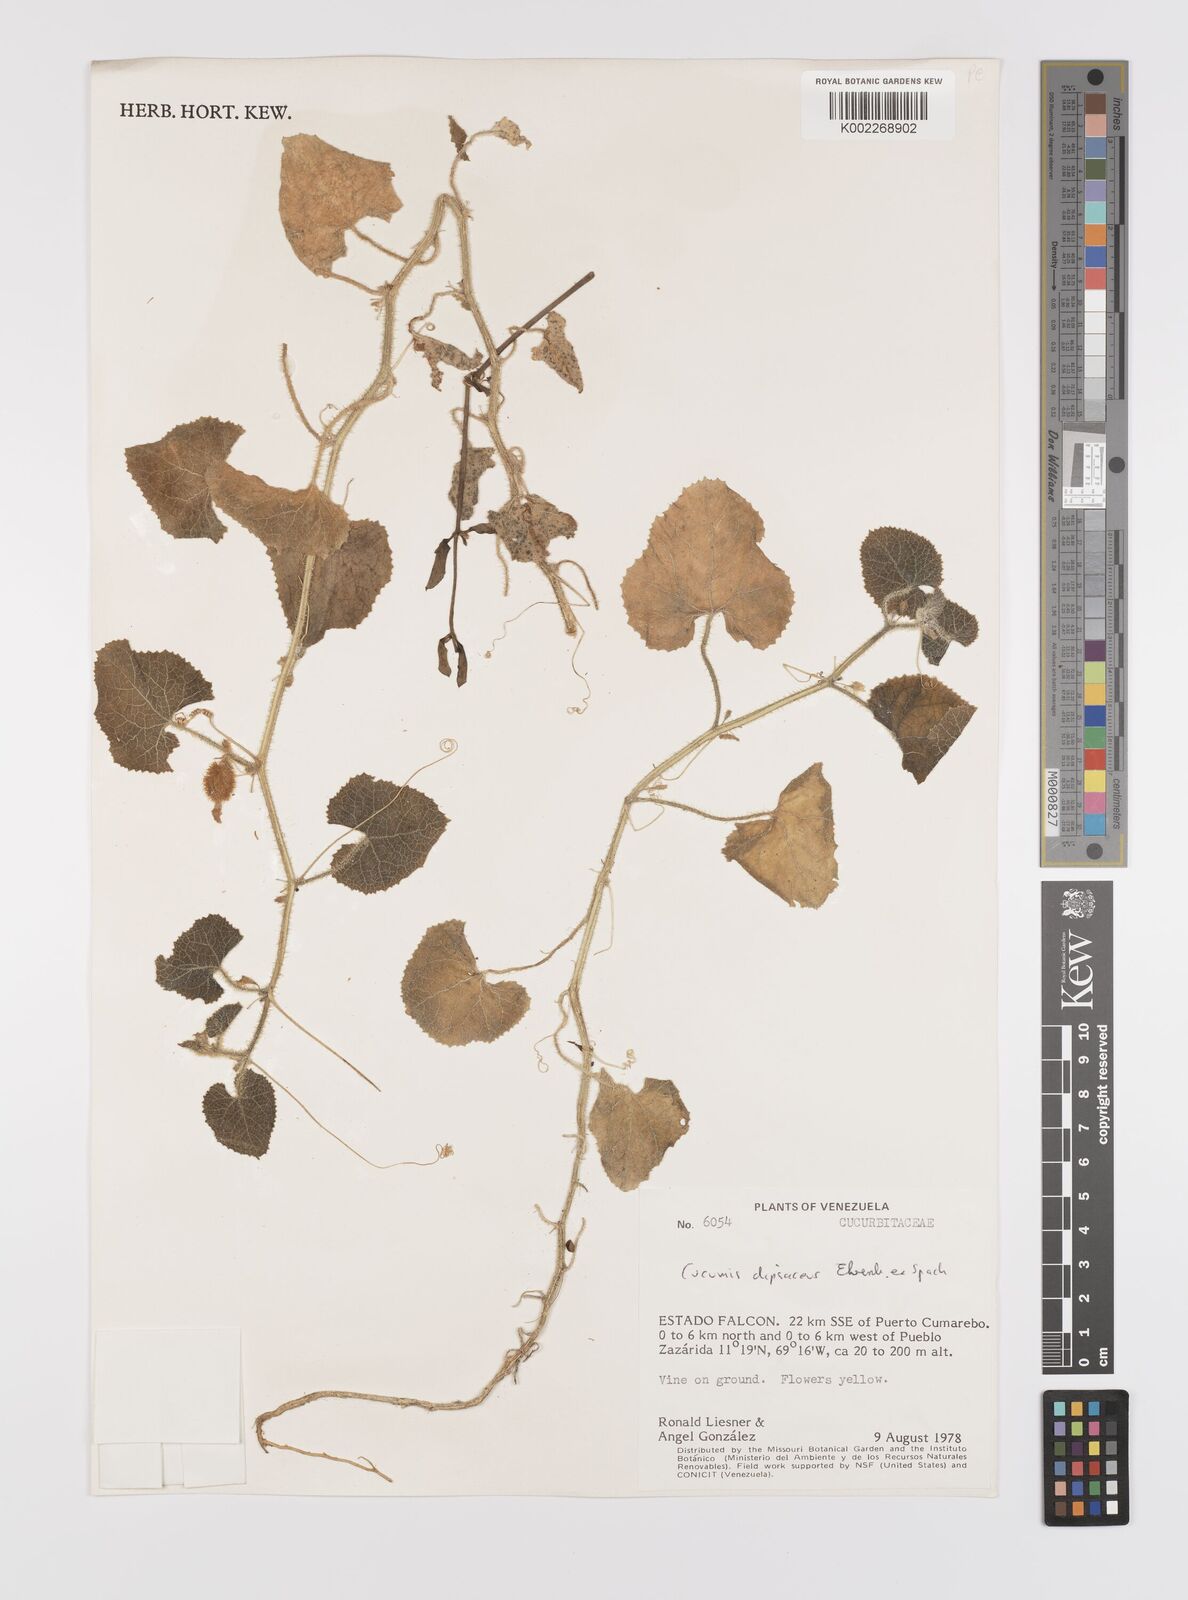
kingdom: Plantae
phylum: Tracheophyta
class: Magnoliopsida
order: Cucurbitales
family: Cucurbitaceae
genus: Cucumis
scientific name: Cucumis
